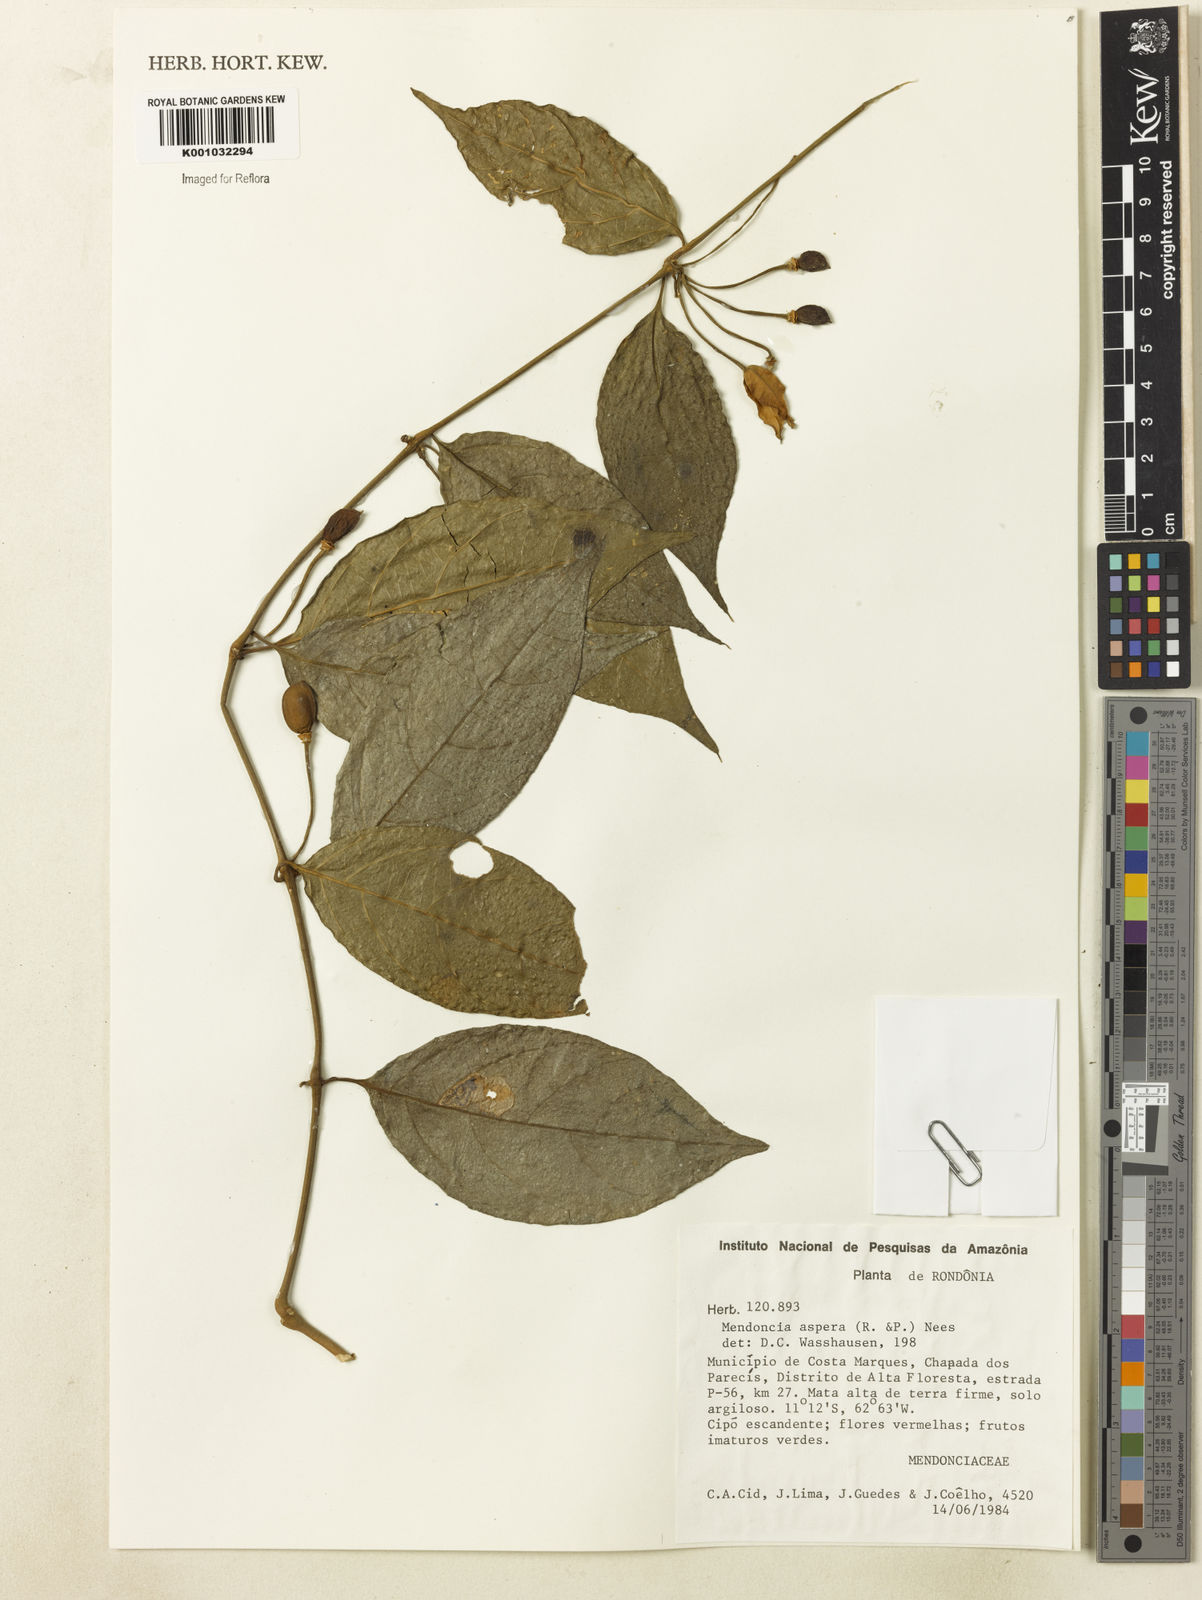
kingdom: Plantae
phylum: Tracheophyta
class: Magnoliopsida
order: Lamiales
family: Acanthaceae
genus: Mendoncia
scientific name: Mendoncia
